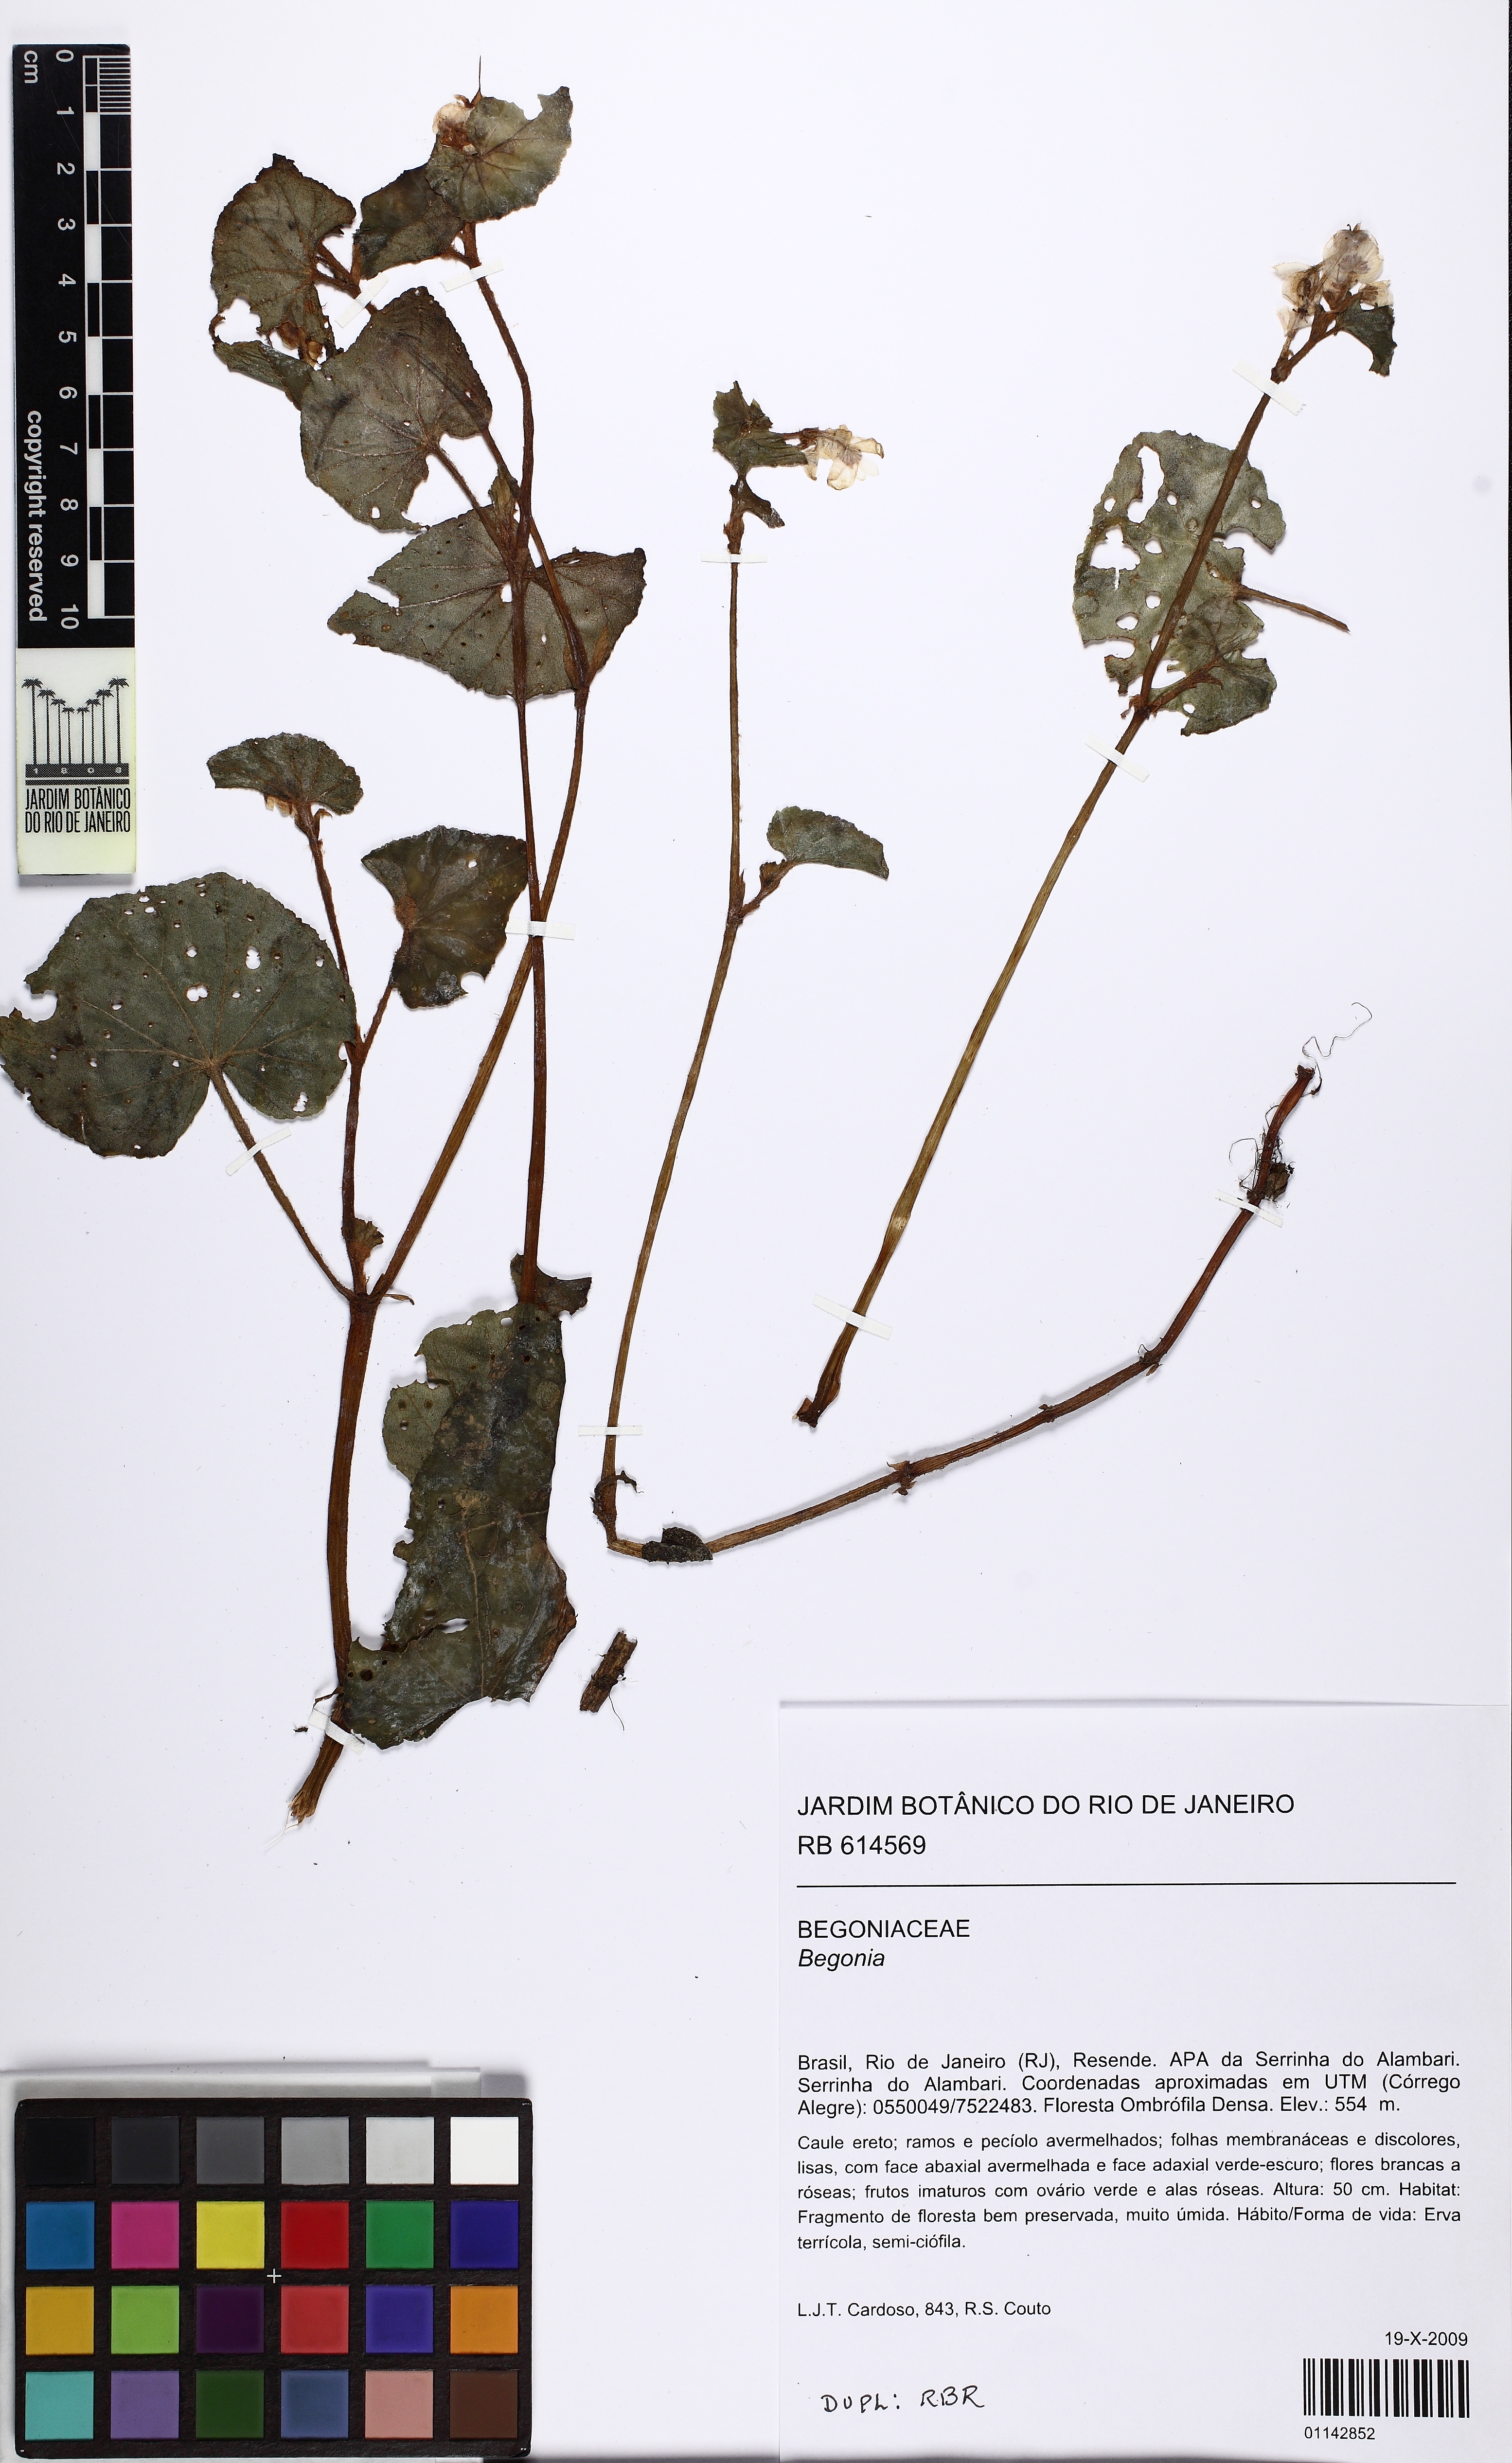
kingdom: Plantae
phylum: Tracheophyta
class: Magnoliopsida
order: Cucurbitales
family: Begoniaceae
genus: Begonia
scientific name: Begonia fischeri
